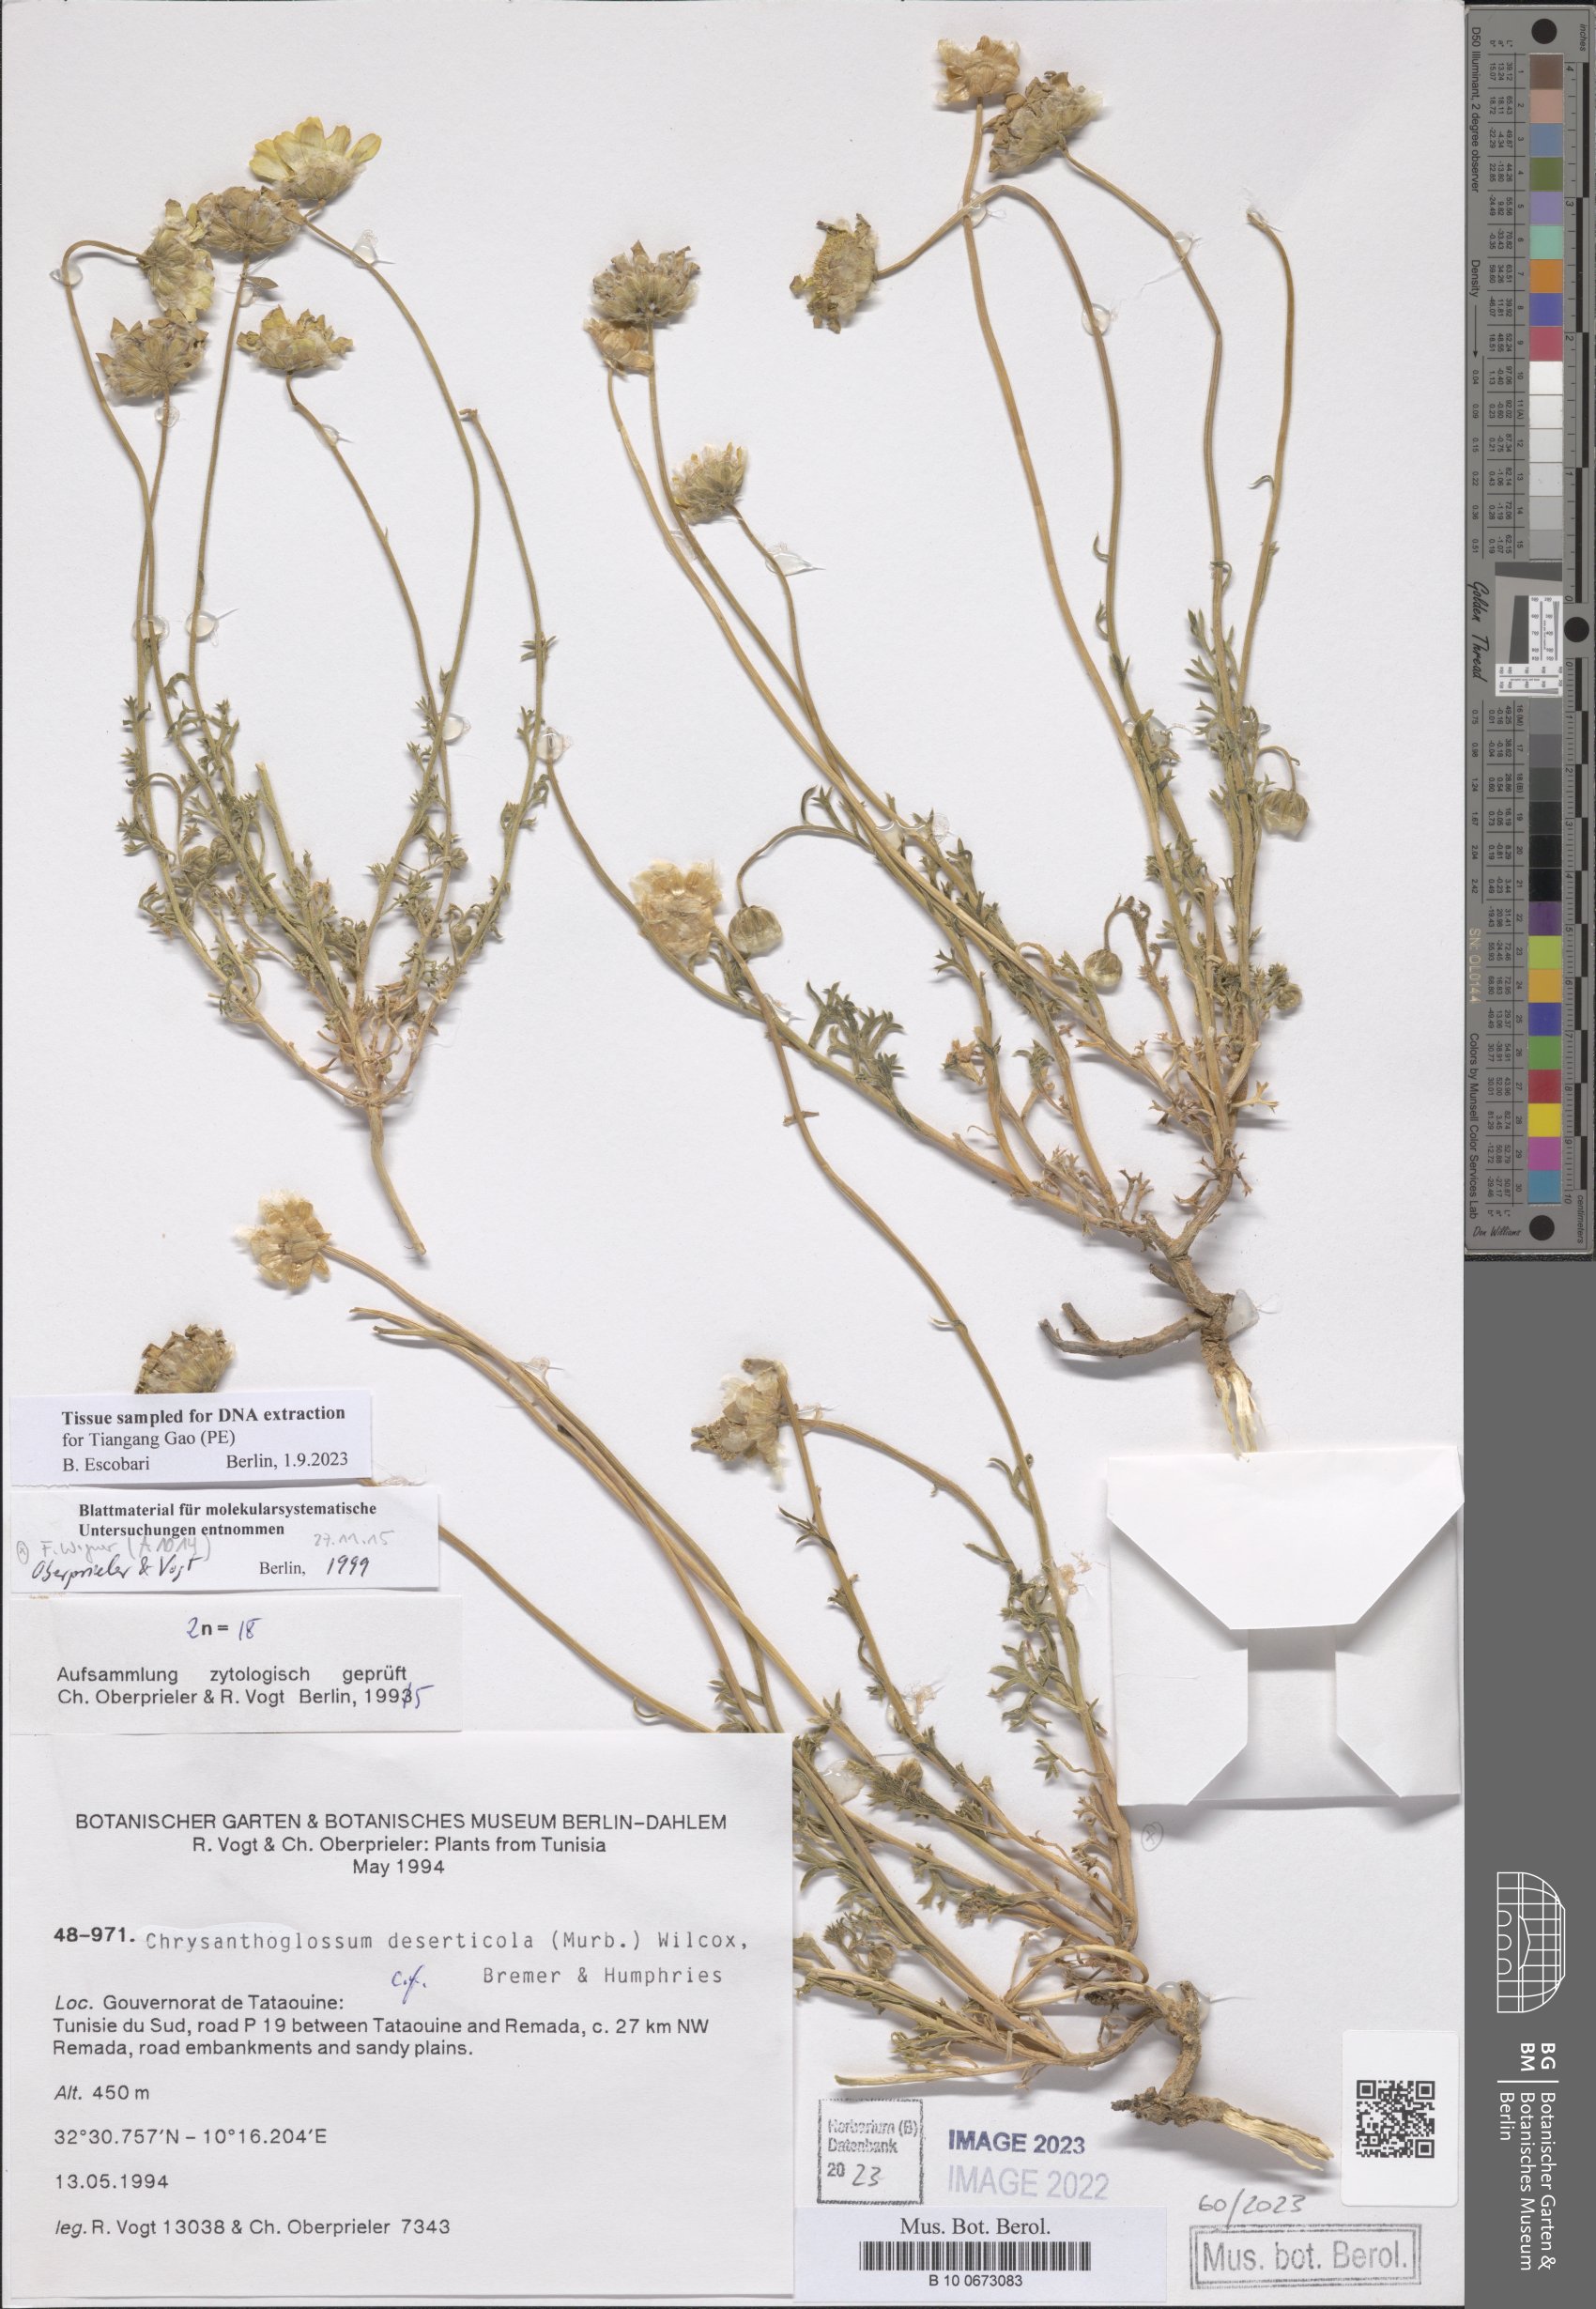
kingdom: Plantae
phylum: Tracheophyta
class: Magnoliopsida
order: Asterales
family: Asteraceae
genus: Chrysanthoglossum
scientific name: Chrysanthoglossum trifurcatum
